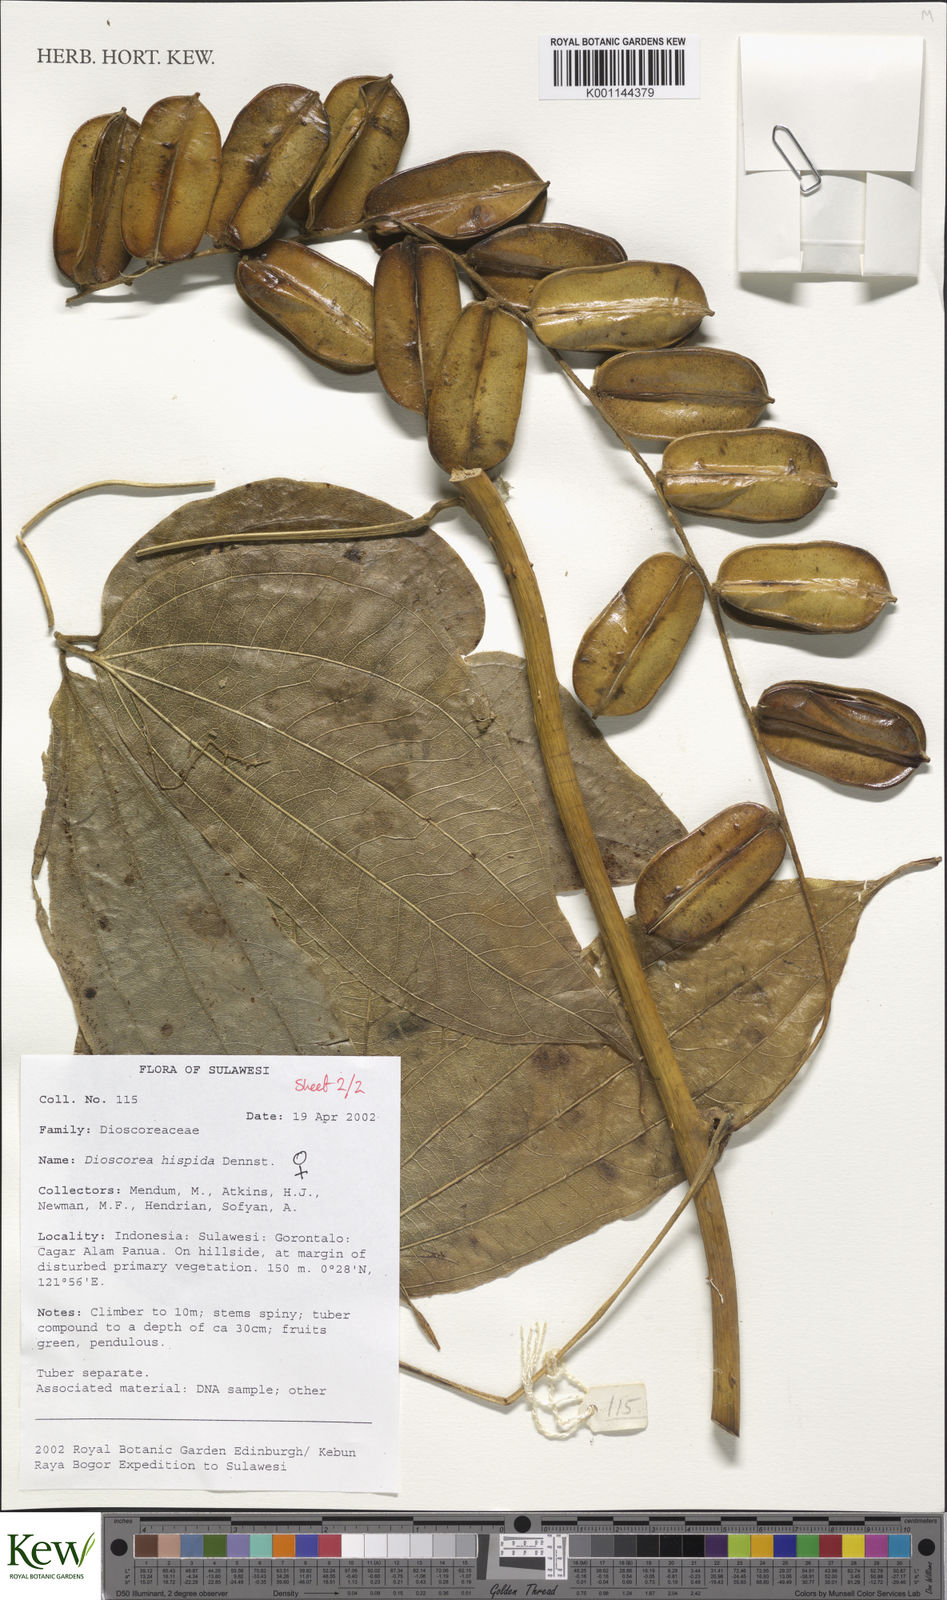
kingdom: Plantae
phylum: Tracheophyta
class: Liliopsida
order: Dioscoreales
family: Dioscoreaceae
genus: Dioscorea
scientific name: Dioscorea hispida
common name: Asiatic bitter yam
